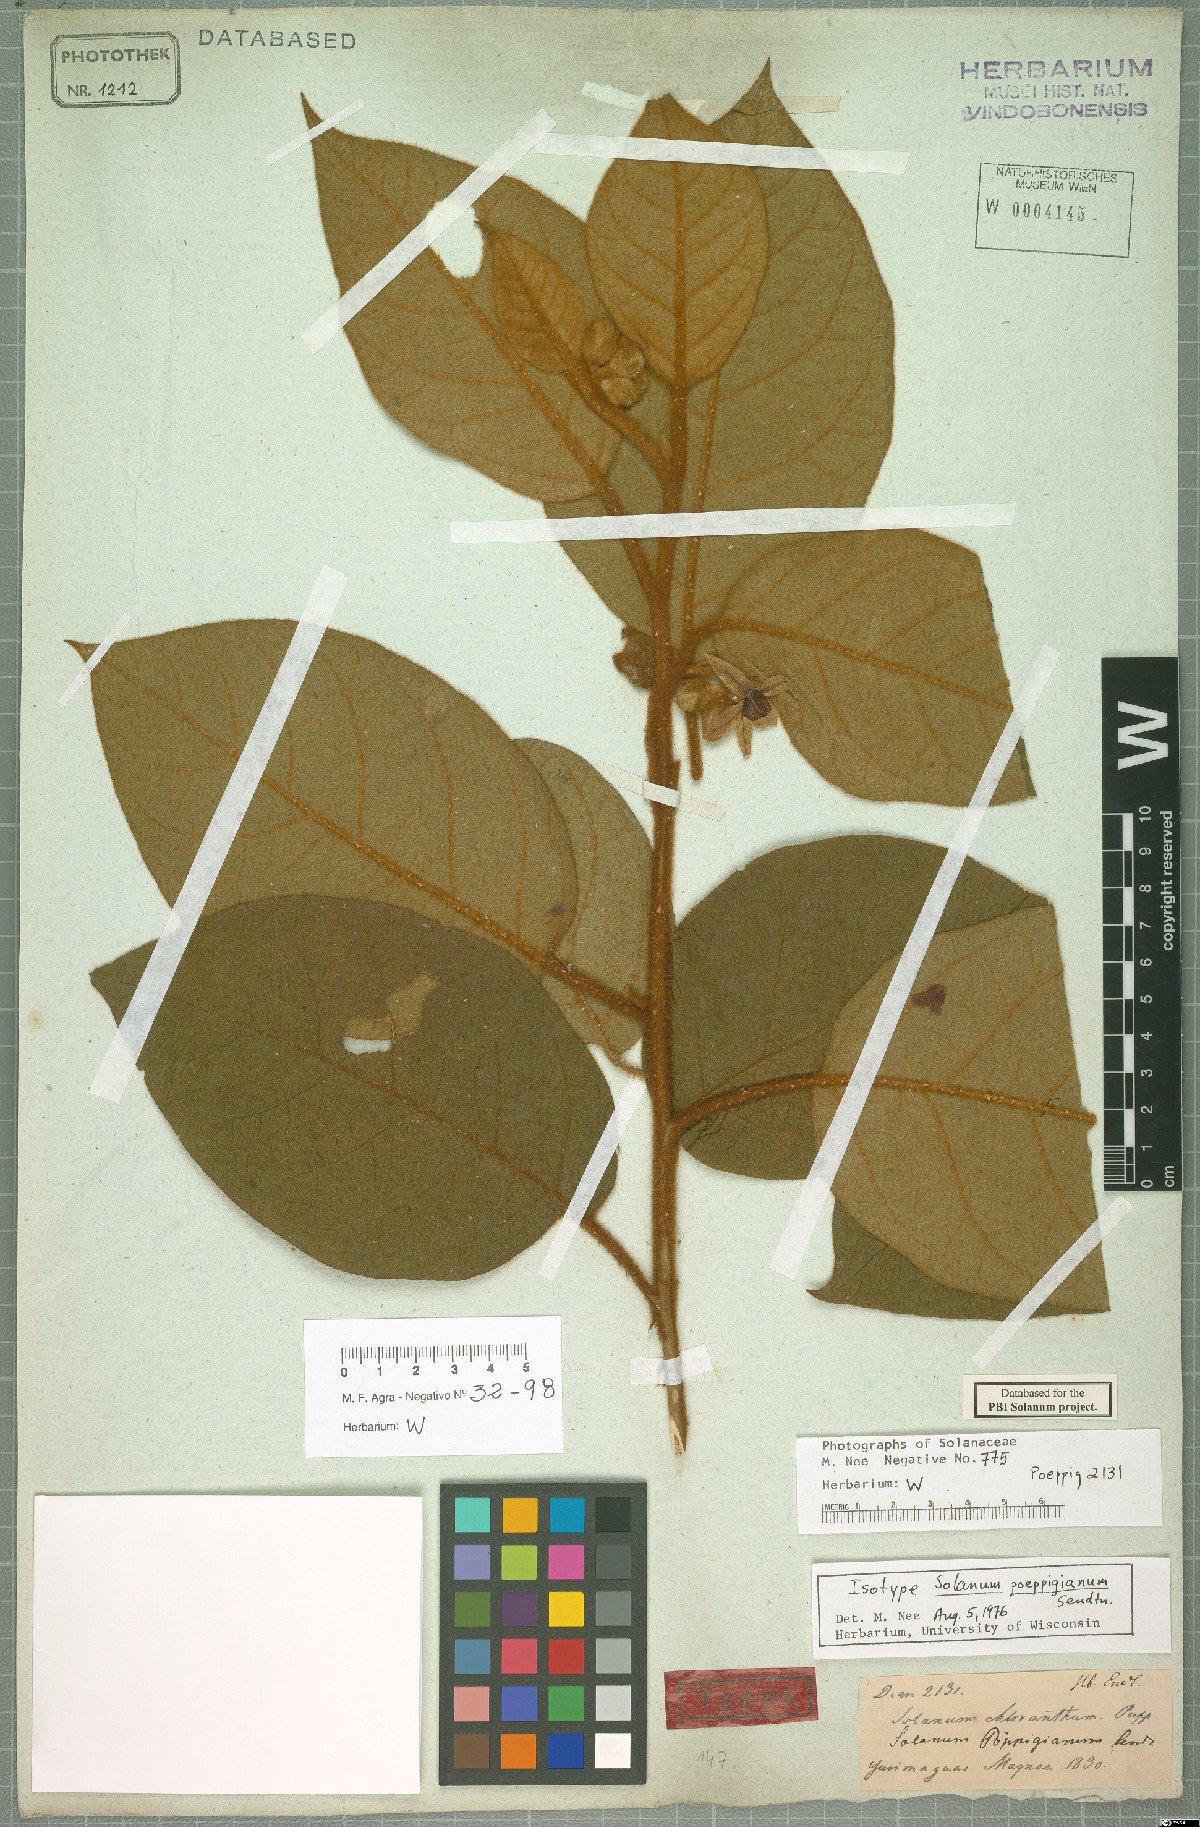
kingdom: Plantae
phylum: Tracheophyta
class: Magnoliopsida
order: Solanales
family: Solanaceae
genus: Solanum
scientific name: Solanum velutinum
